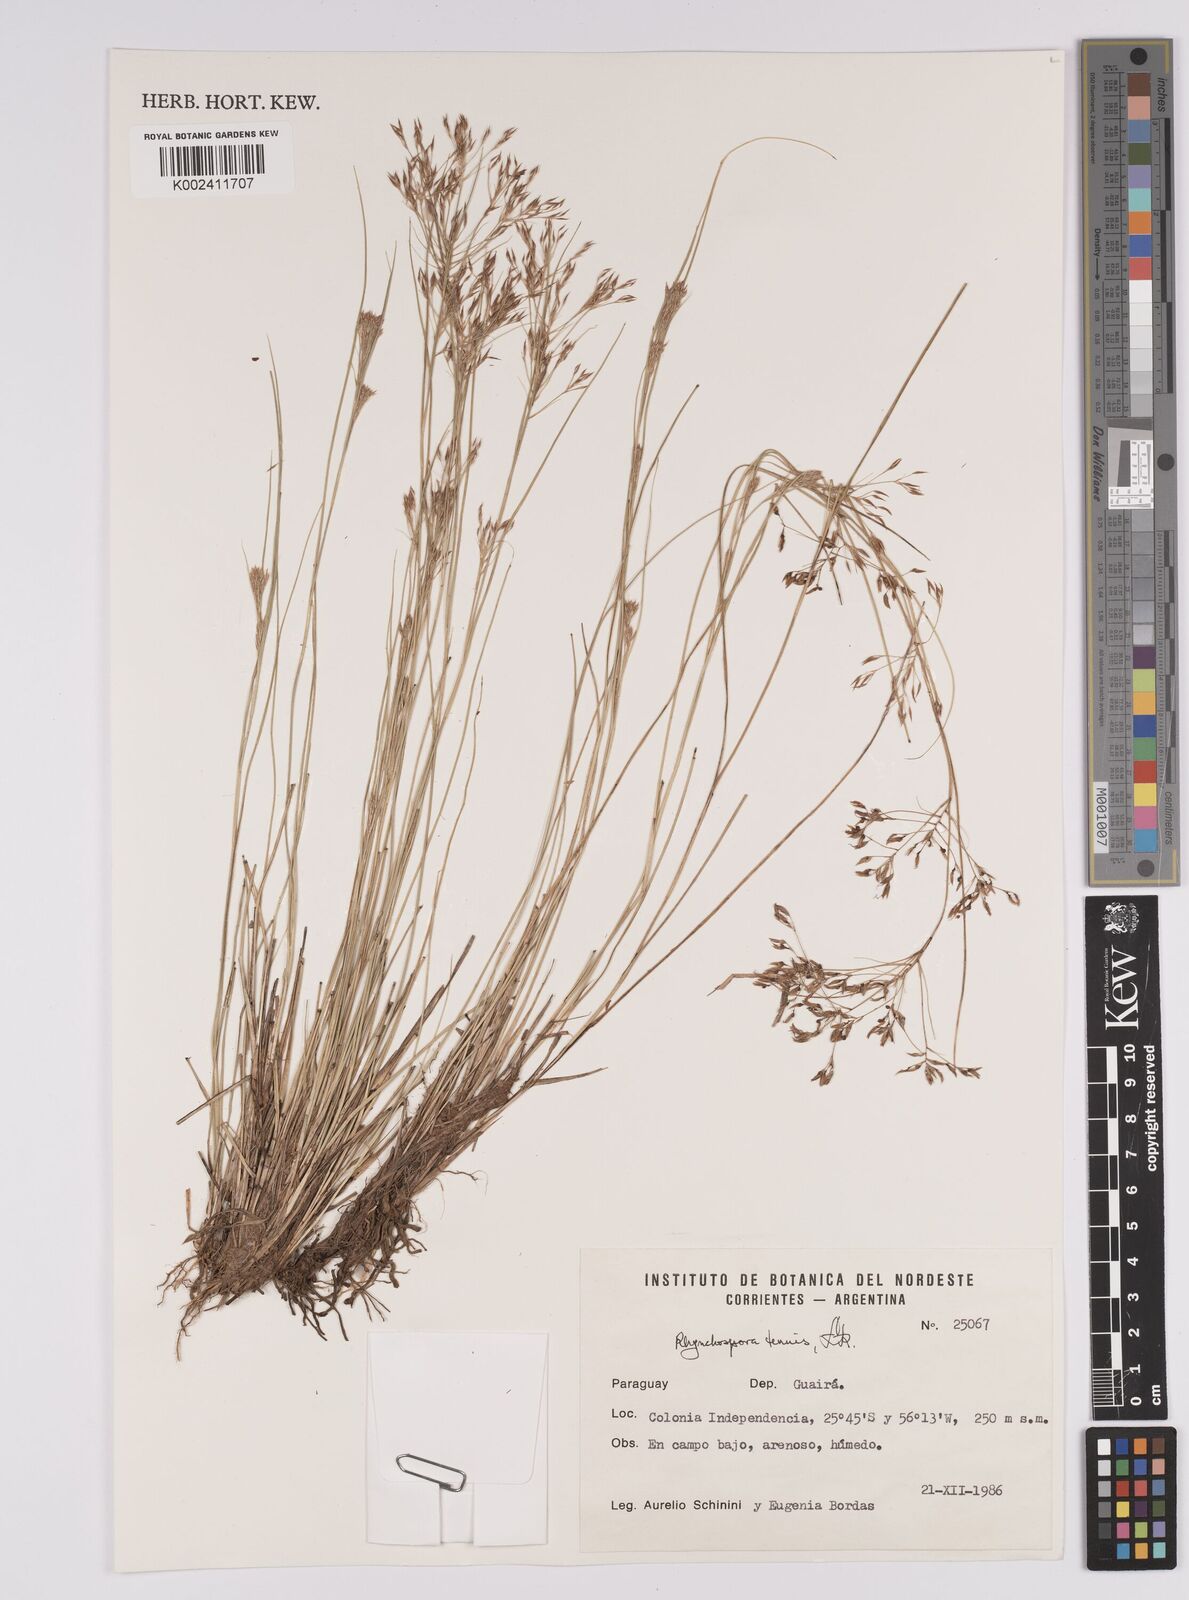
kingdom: Plantae
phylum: Tracheophyta
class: Liliopsida
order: Poales
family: Cyperaceae
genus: Rhynchospora
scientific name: Rhynchospora tenuis
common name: Quill beaksedge
